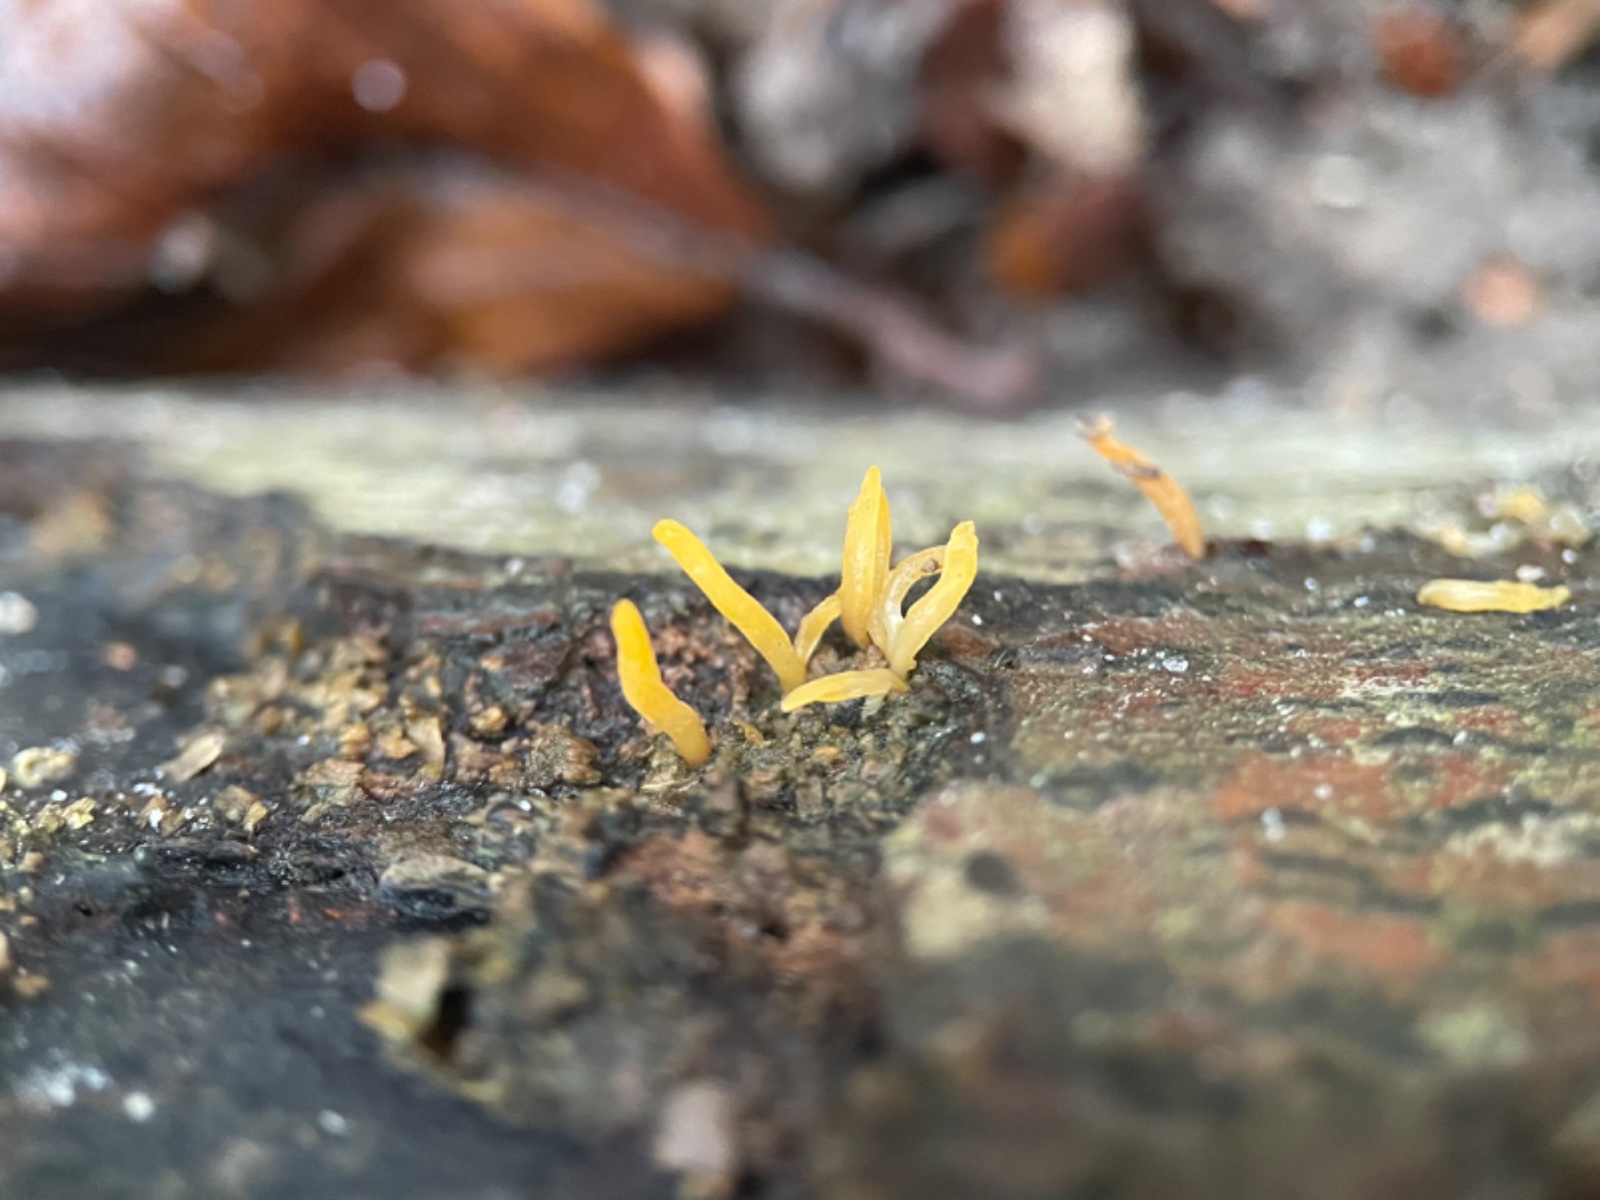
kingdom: Fungi
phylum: Basidiomycota
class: Dacrymycetes
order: Dacrymycetales
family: Dacrymycetaceae
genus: Calocera
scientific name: Calocera cornea
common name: liden guldgaffel
